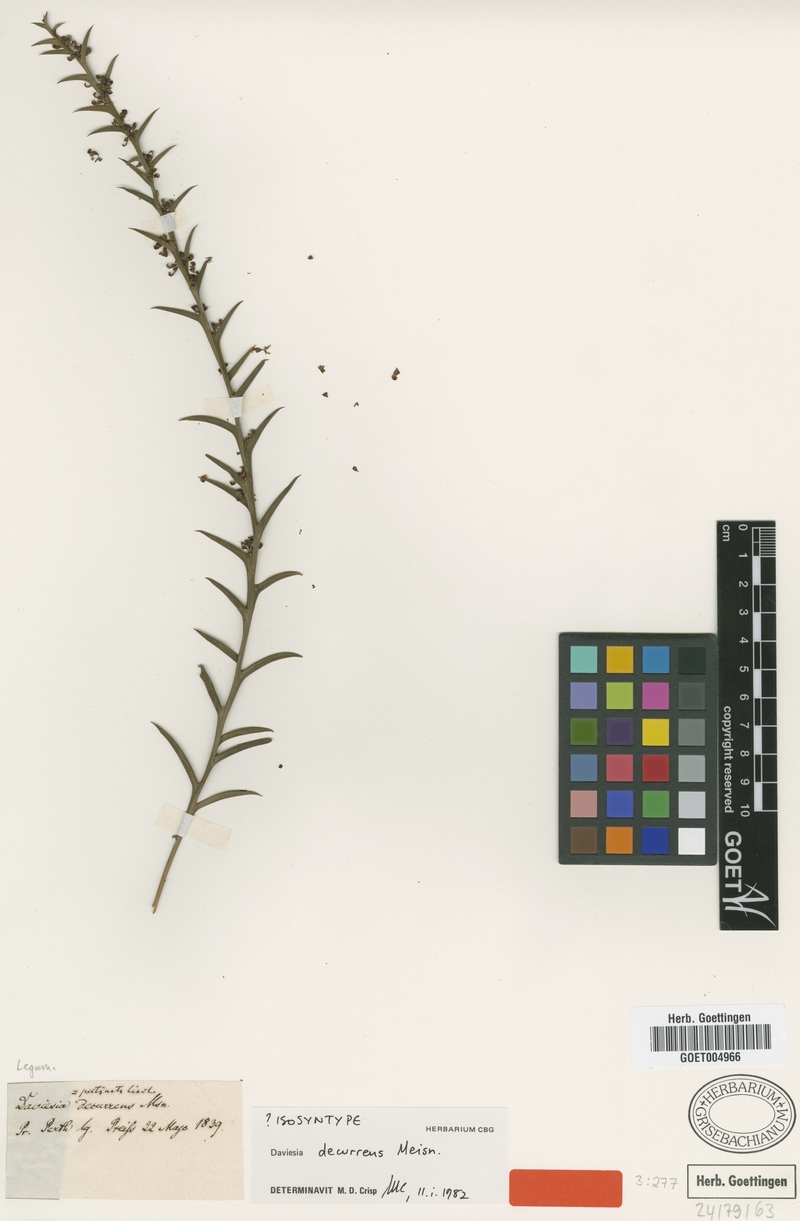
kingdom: Plantae
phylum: Tracheophyta
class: Magnoliopsida
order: Fabales
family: Fabaceae
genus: Daviesia
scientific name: Daviesia decurrens
